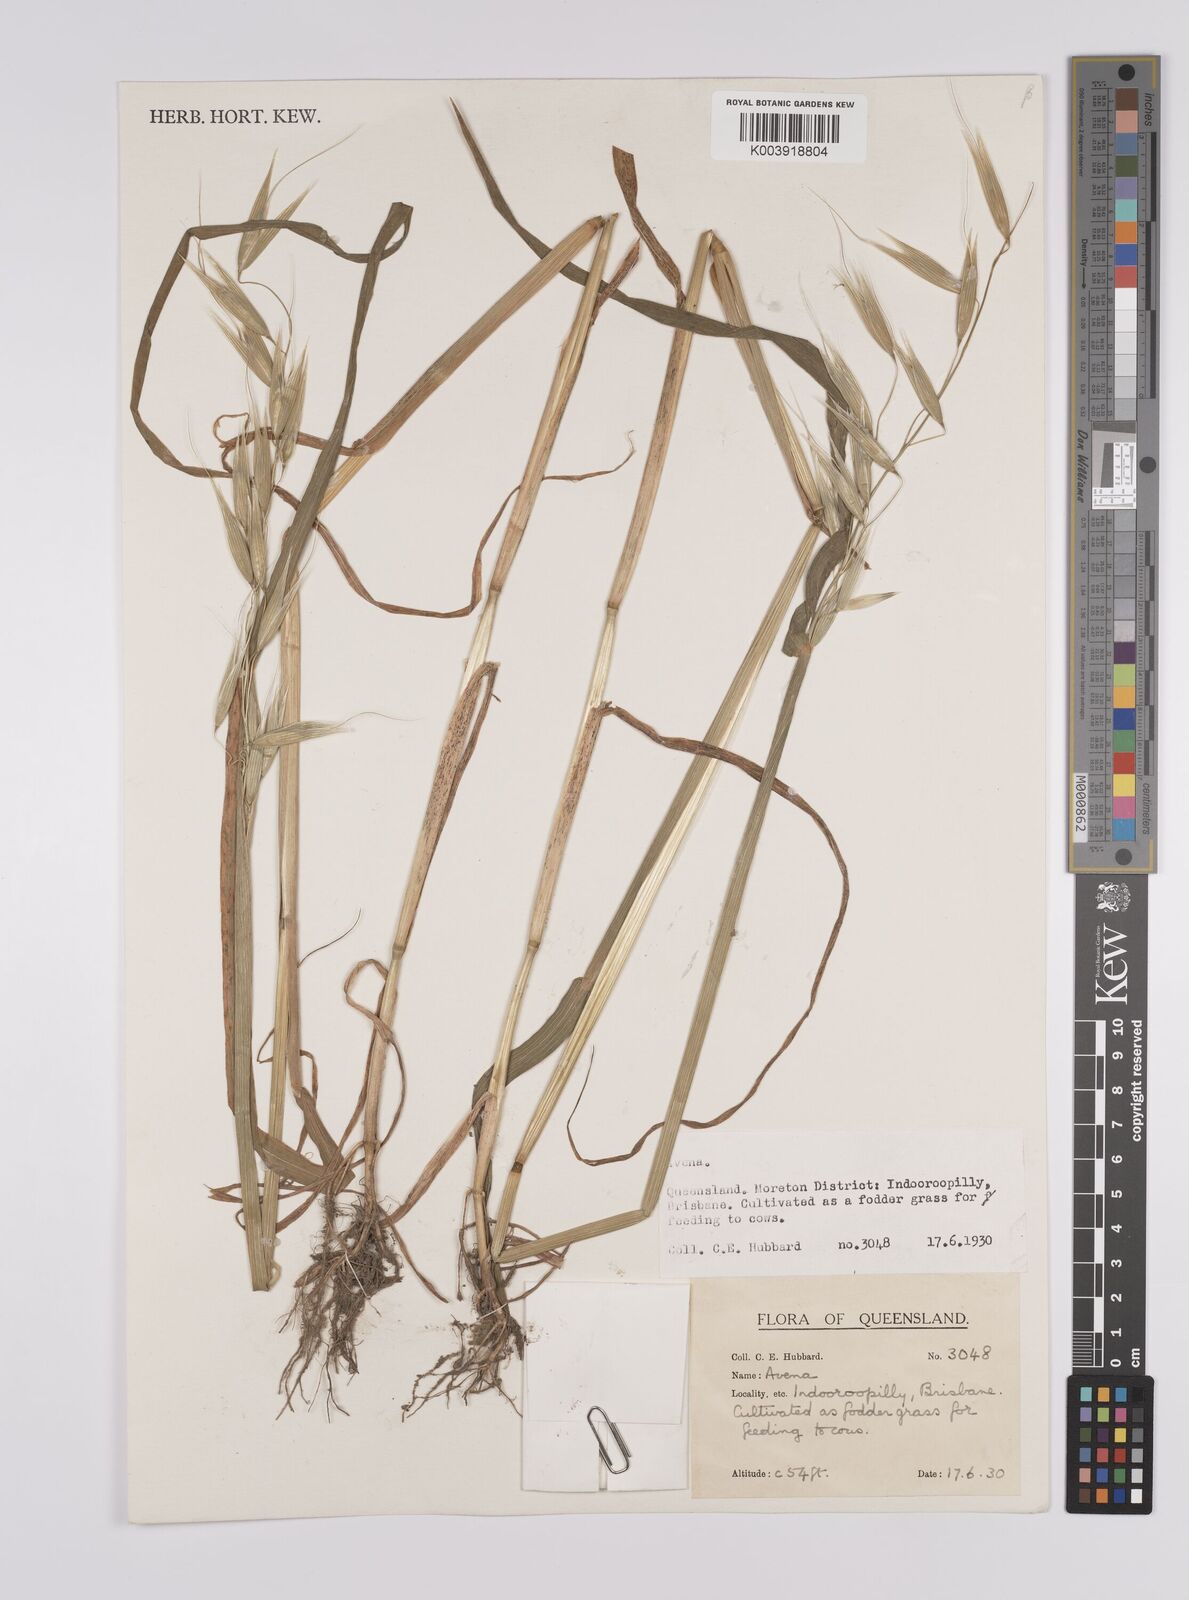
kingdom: Plantae
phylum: Tracheophyta
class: Liliopsida
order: Poales
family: Poaceae
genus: Avena
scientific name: Avena
